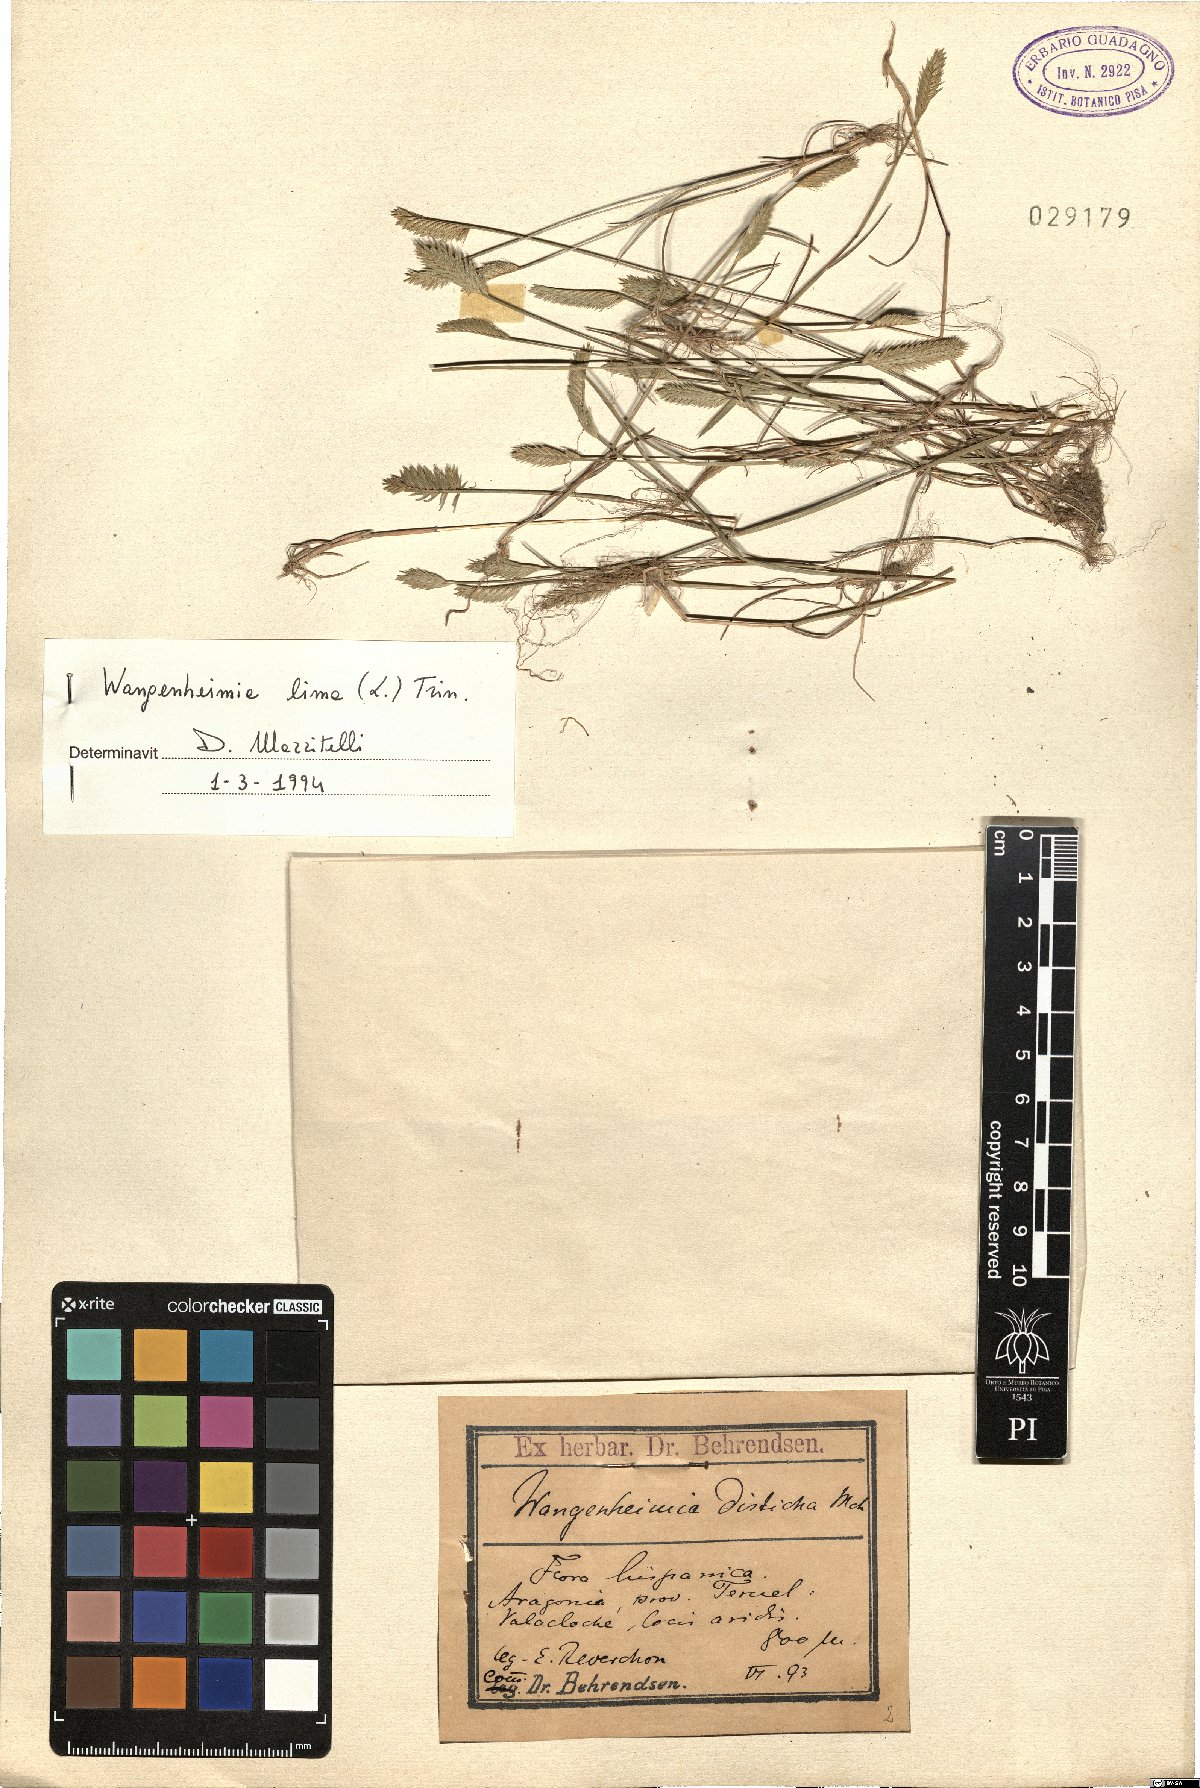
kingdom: Plantae
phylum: Tracheophyta
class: Liliopsida
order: Poales
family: Poaceae
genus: Wangenheimia
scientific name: Wangenheimia lima
